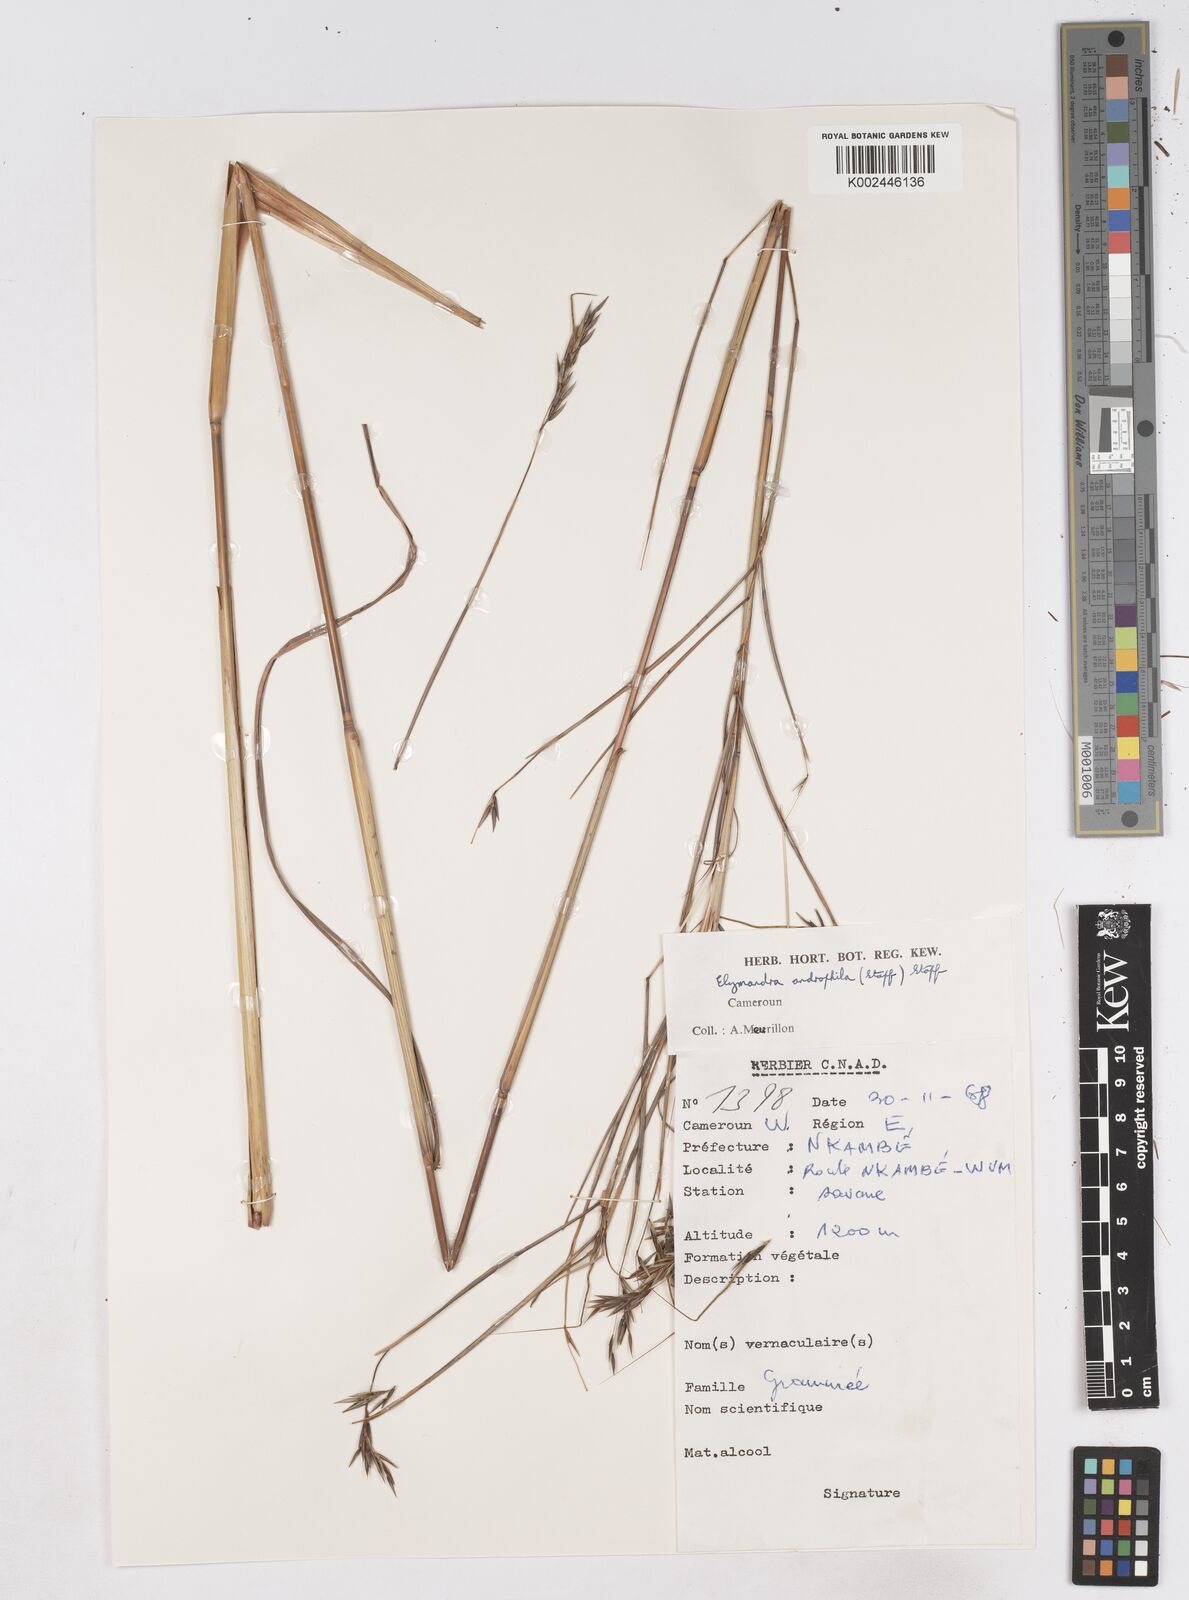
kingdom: Plantae
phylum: Tracheophyta
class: Liliopsida
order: Poales
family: Poaceae
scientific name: Poaceae
